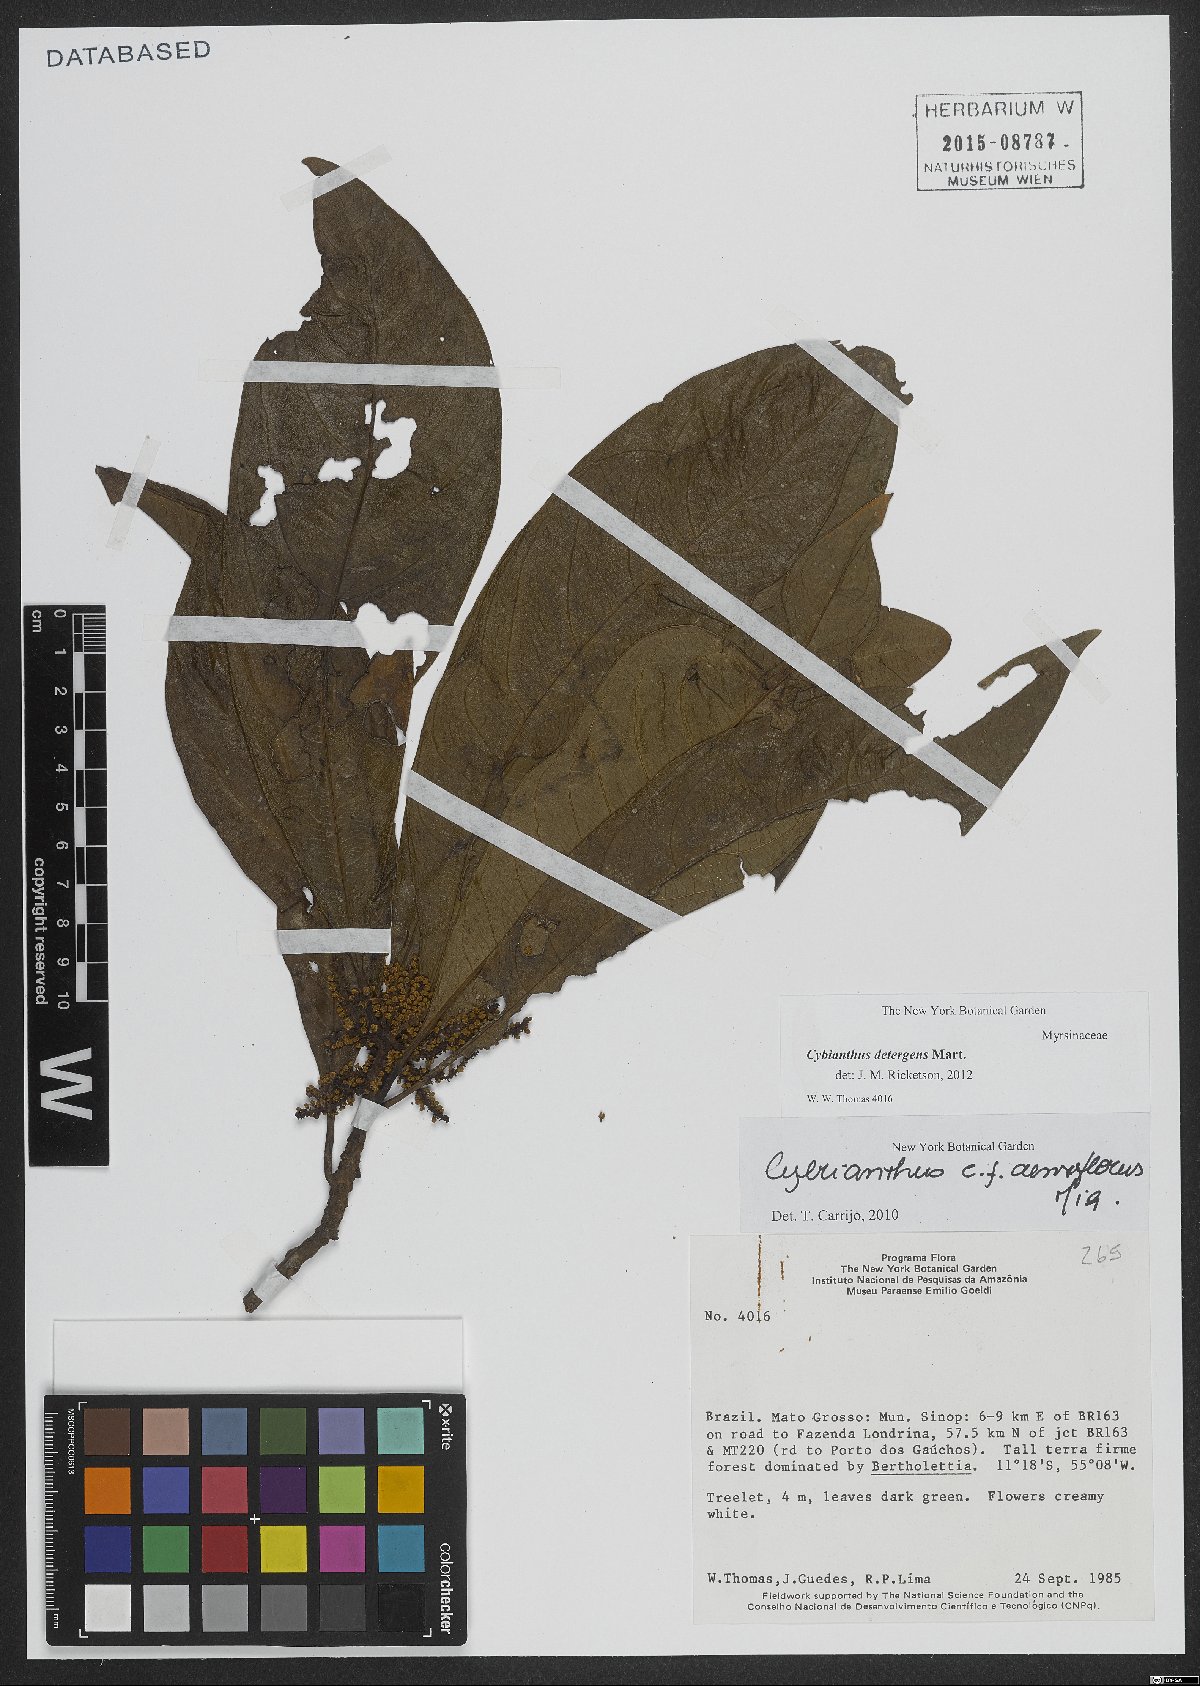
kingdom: Plantae
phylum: Tracheophyta
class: Magnoliopsida
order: Ericales
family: Primulaceae
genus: Cybianthus
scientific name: Cybianthus detergens
